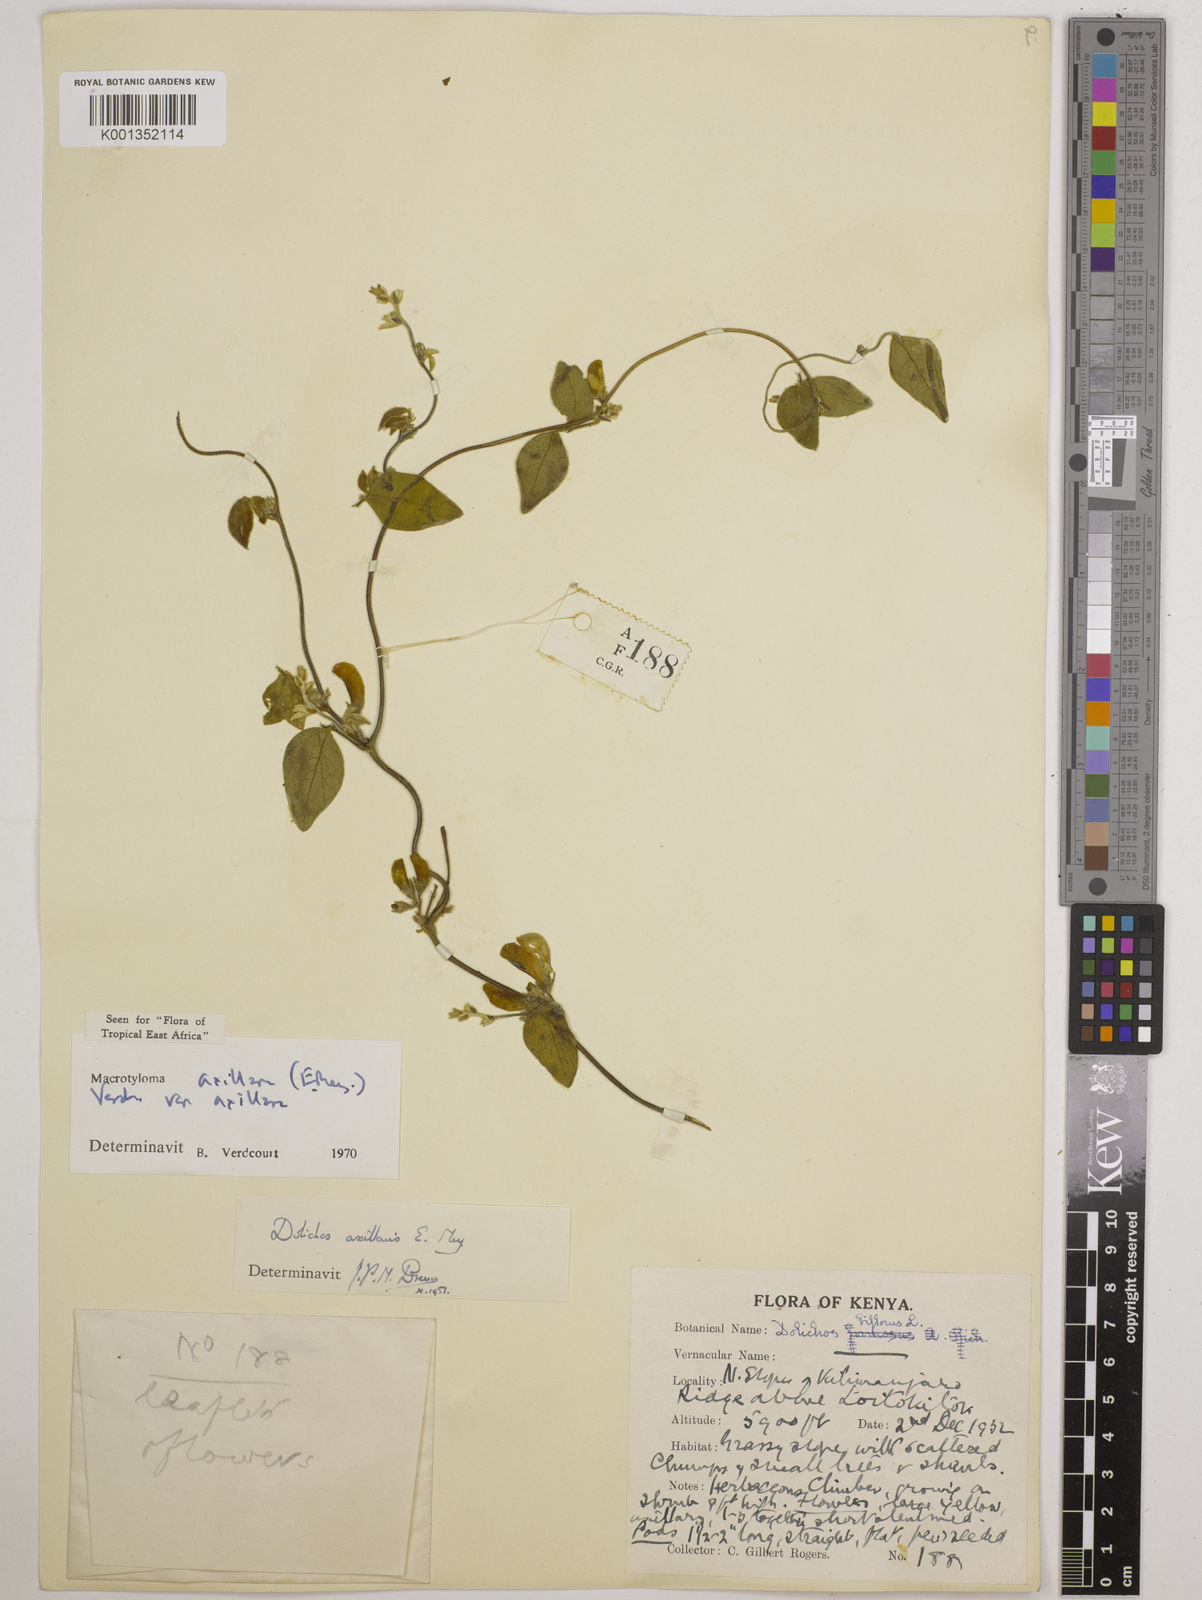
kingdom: Plantae
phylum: Tracheophyta
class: Magnoliopsida
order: Fabales
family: Fabaceae
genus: Macrotyloma
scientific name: Macrotyloma axillare
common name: Perennial horsegram
